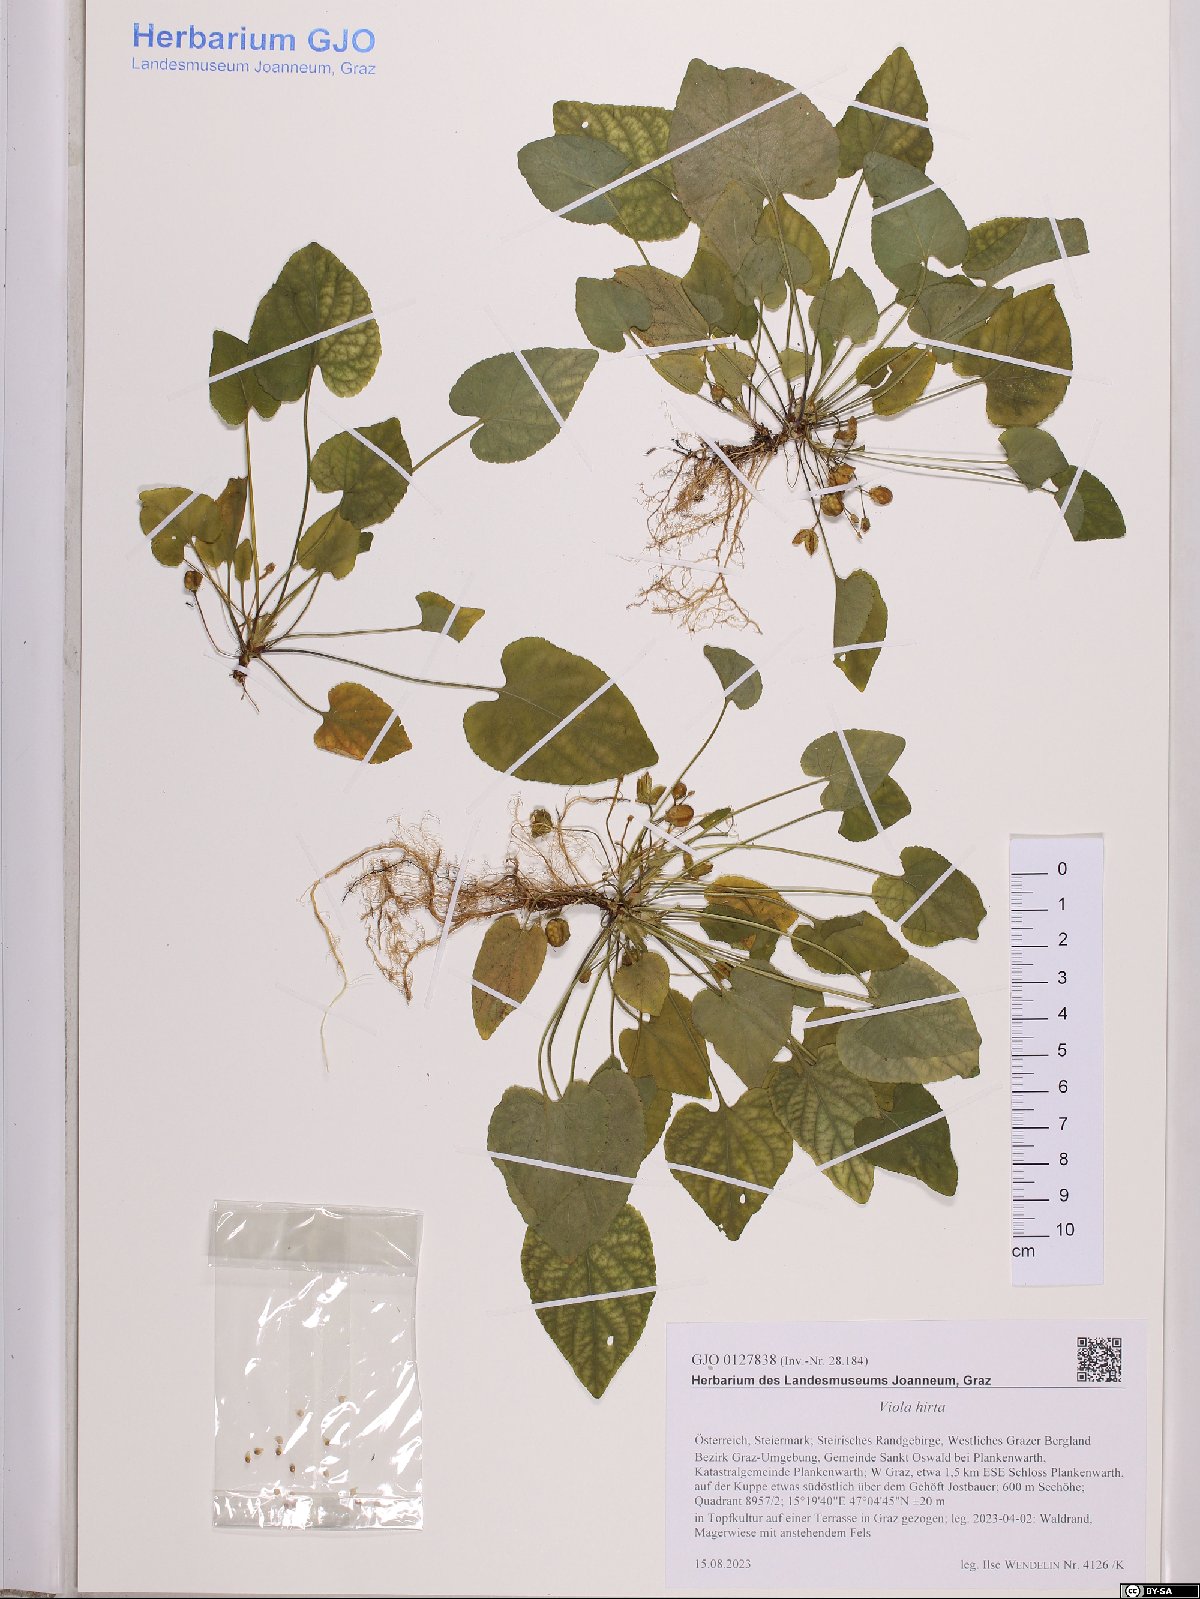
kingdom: Plantae
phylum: Tracheophyta
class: Magnoliopsida
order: Malpighiales
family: Violaceae
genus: Viola
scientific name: Viola hirta
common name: Hairy violet
